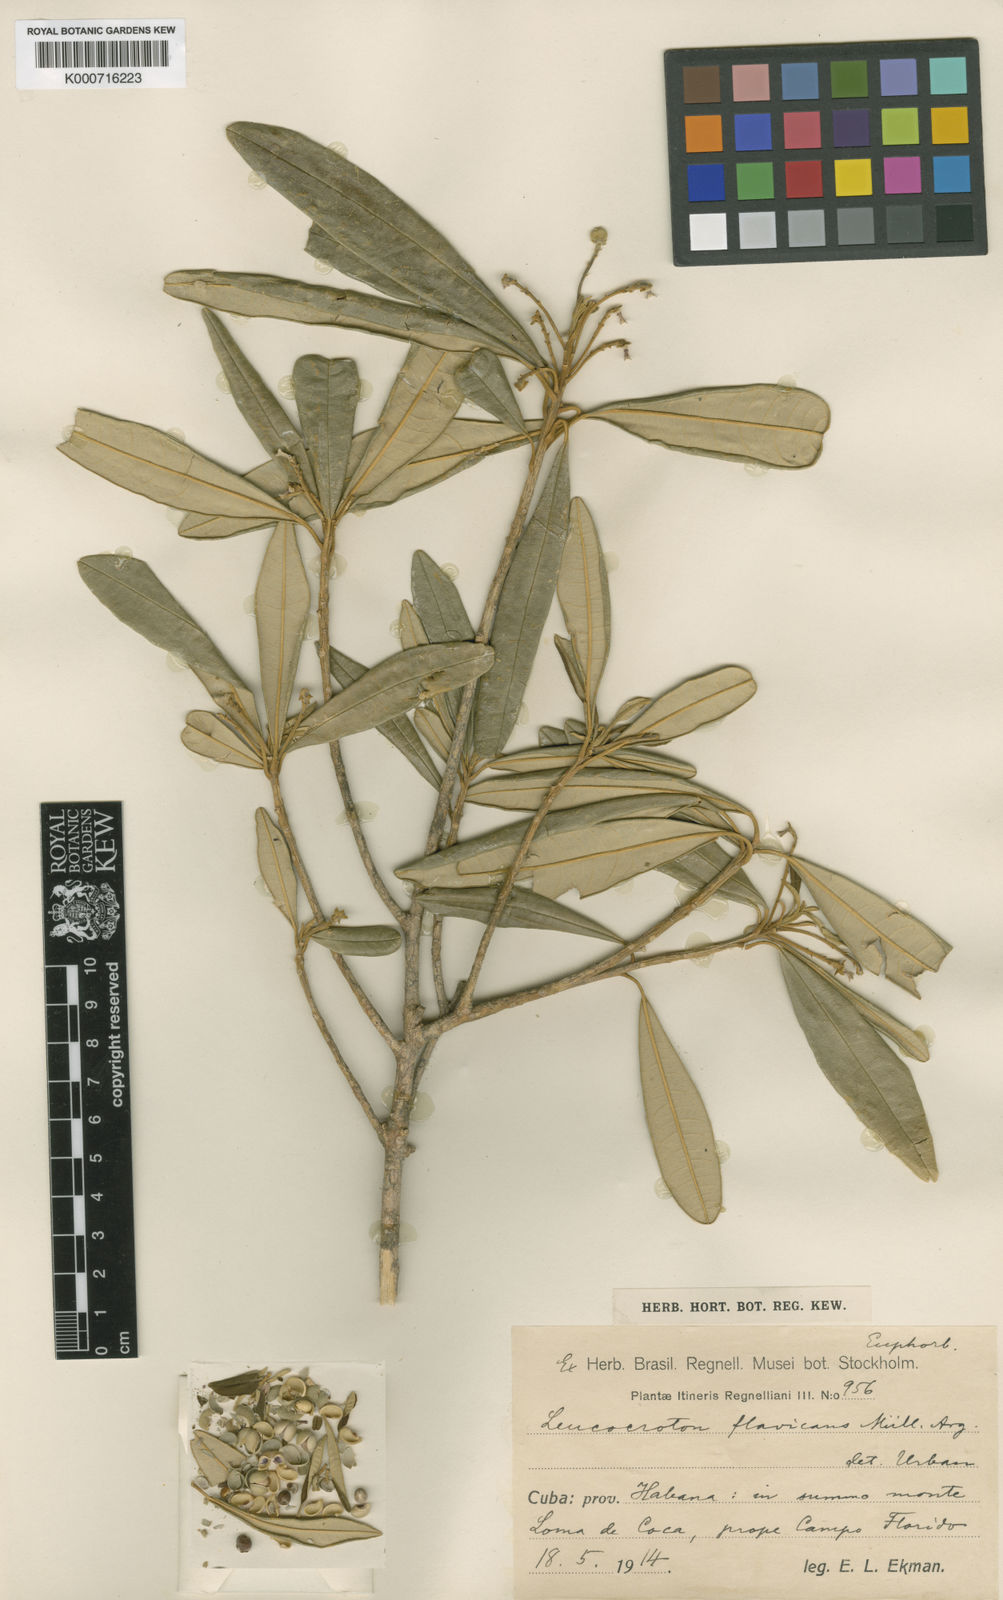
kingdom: Plantae
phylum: Tracheophyta
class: Magnoliopsida
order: Malpighiales
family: Euphorbiaceae
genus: Leucocroton
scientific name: Leucocroton havanensis
